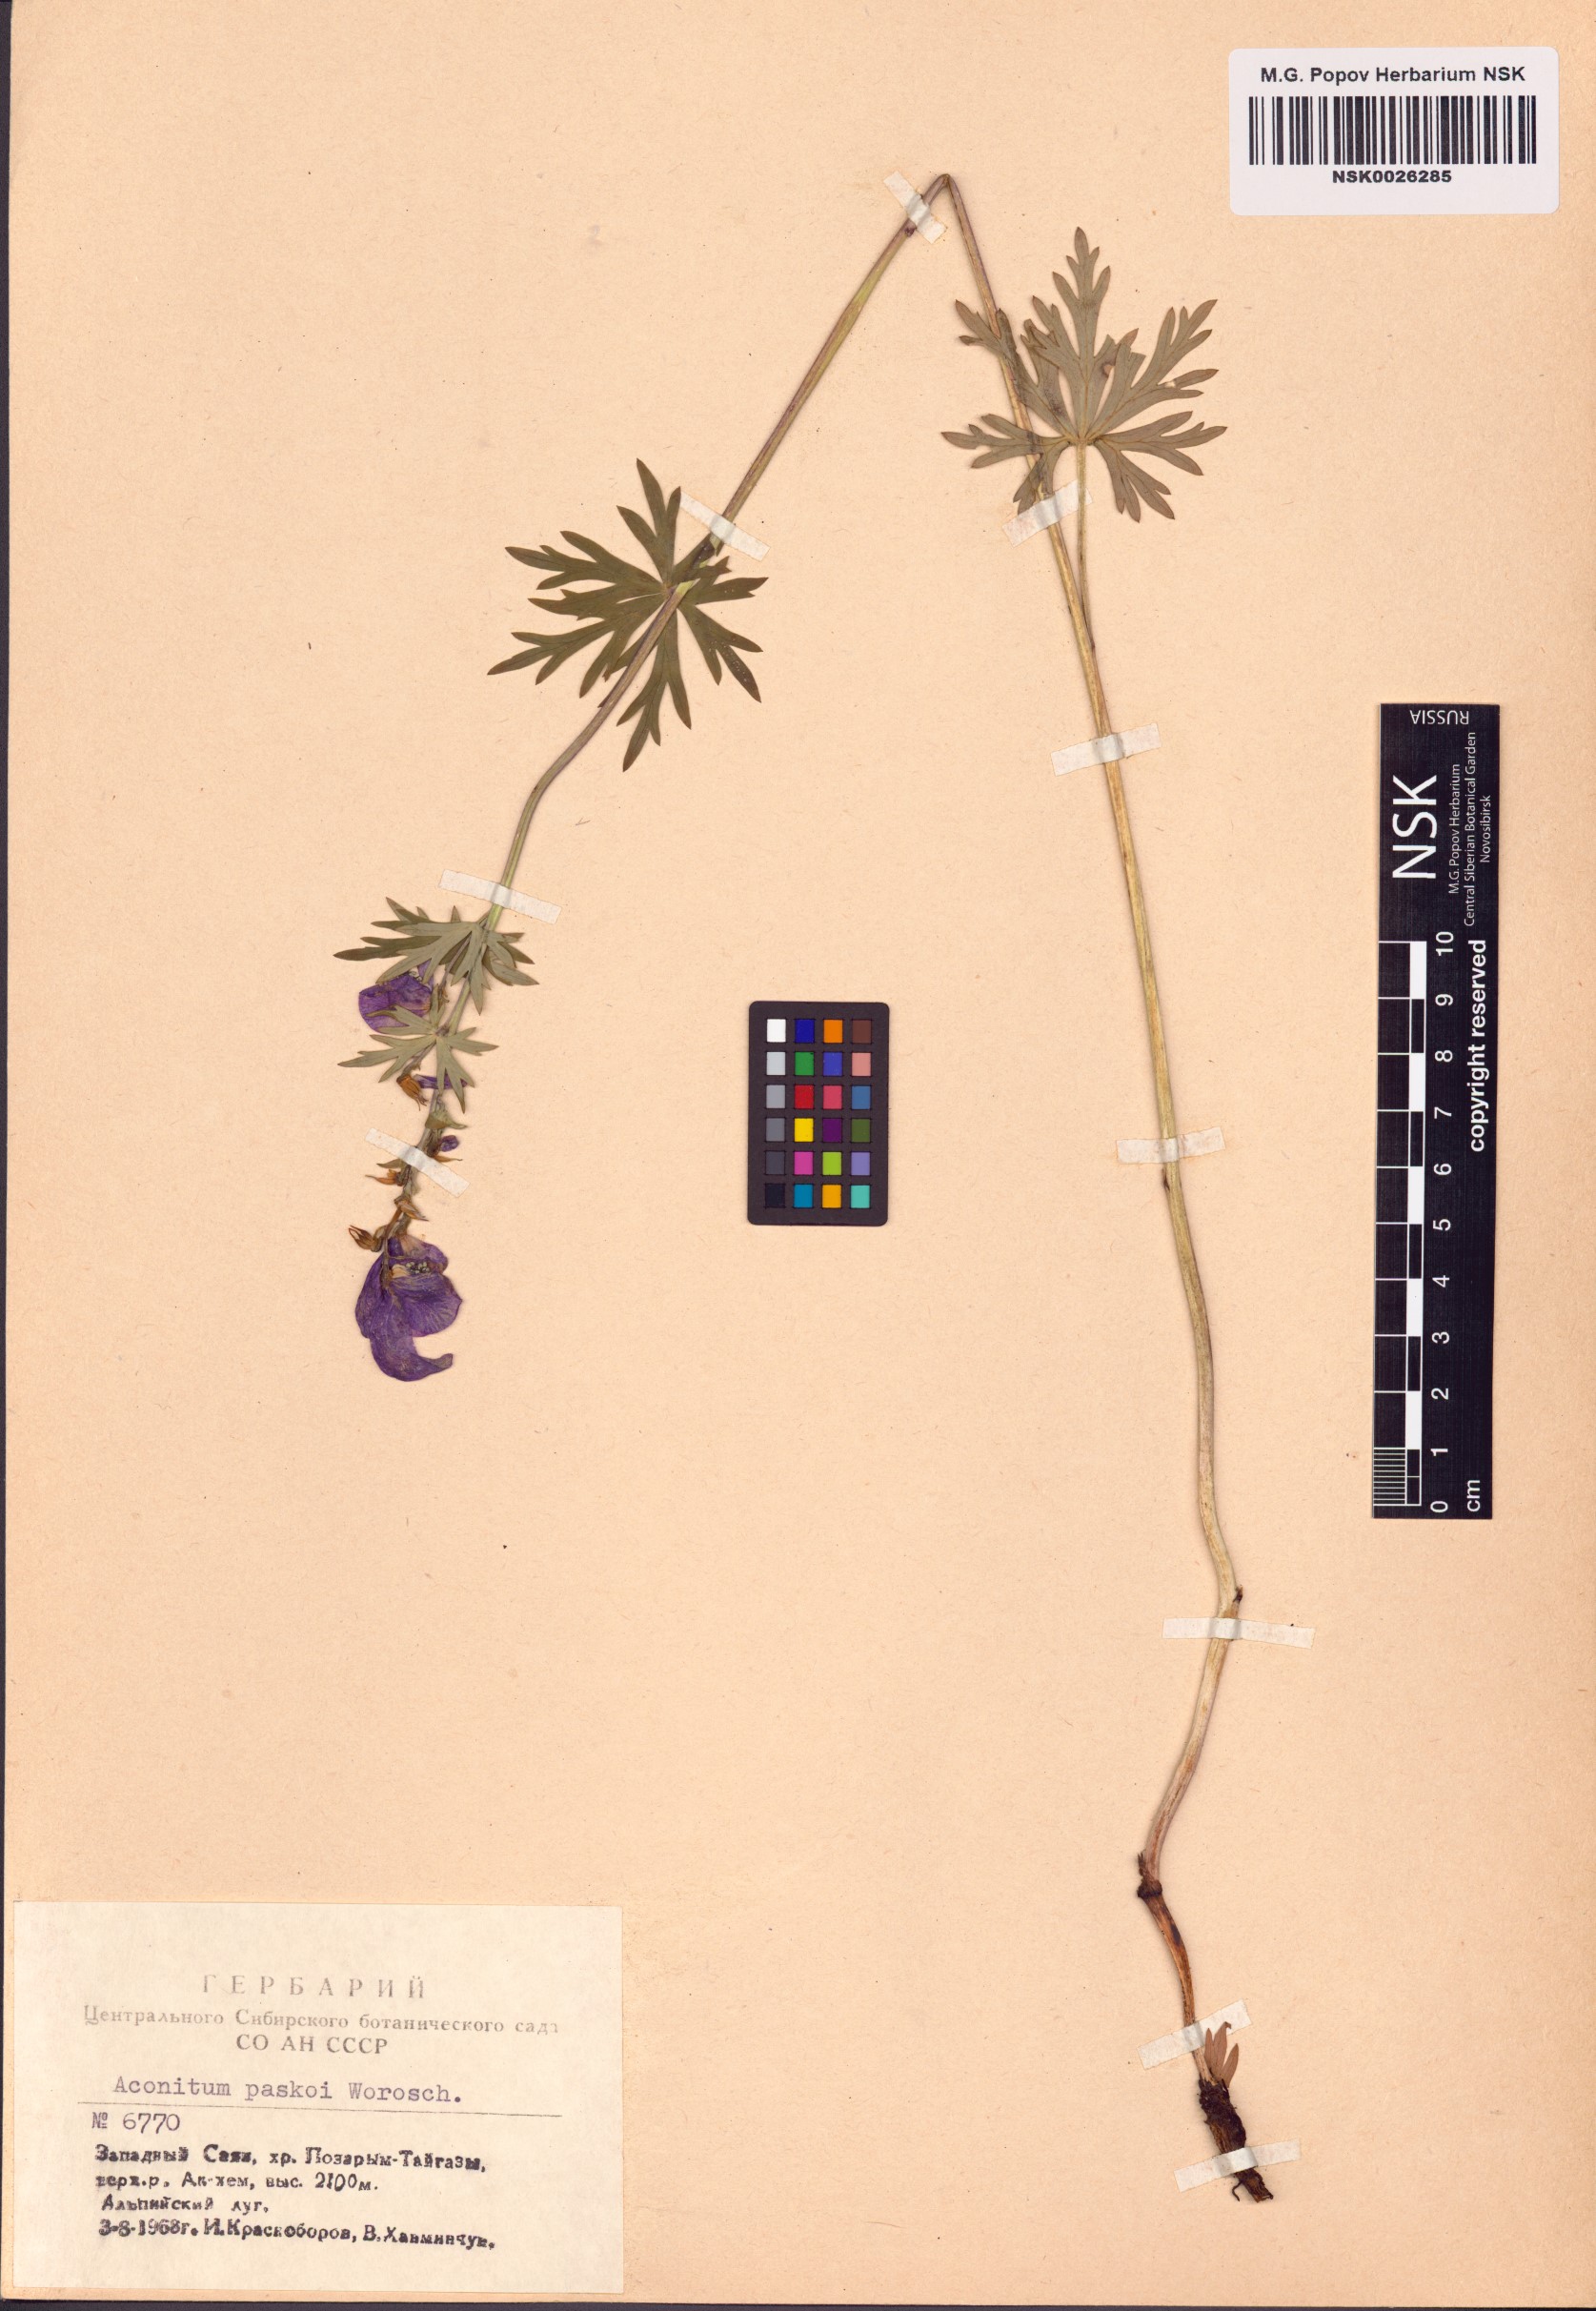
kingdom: Plantae
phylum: Tracheophyta
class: Magnoliopsida
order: Ranunculales
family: Ranunculaceae
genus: Aconitum
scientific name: Aconitum pascoi
